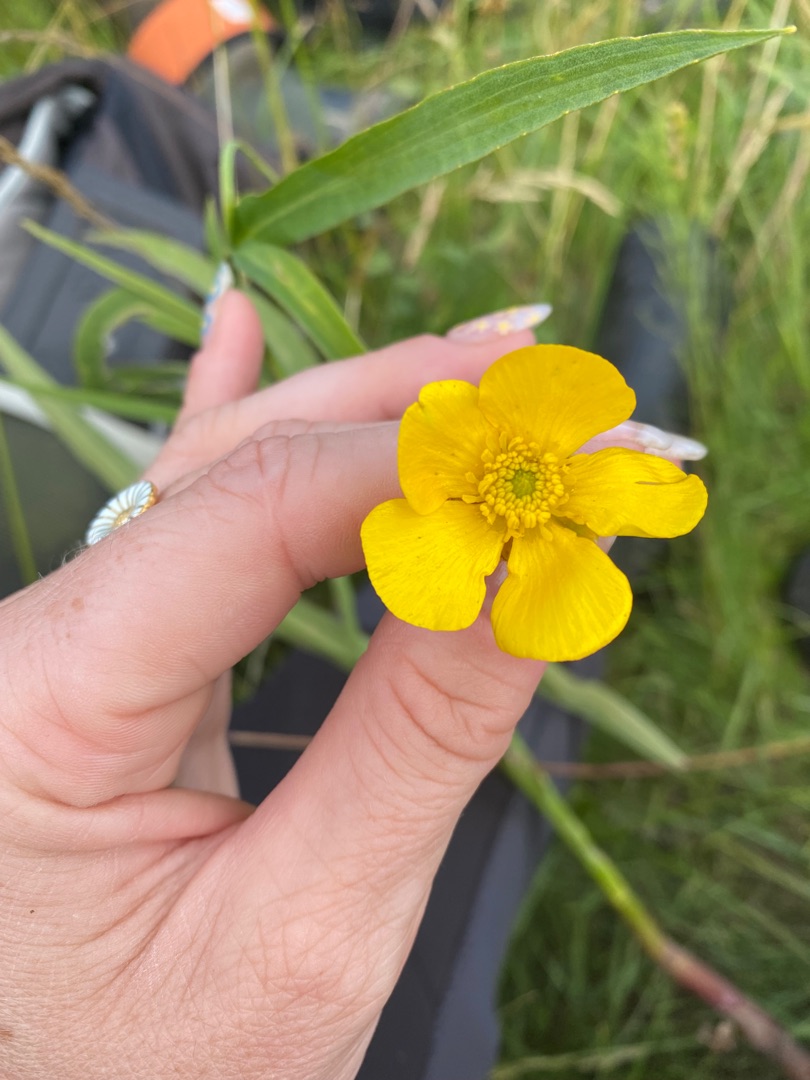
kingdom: Plantae
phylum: Tracheophyta
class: Magnoliopsida
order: Ranunculales
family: Ranunculaceae
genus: Ranunculus
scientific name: Ranunculus lingua
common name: Langbladet ranunkel
